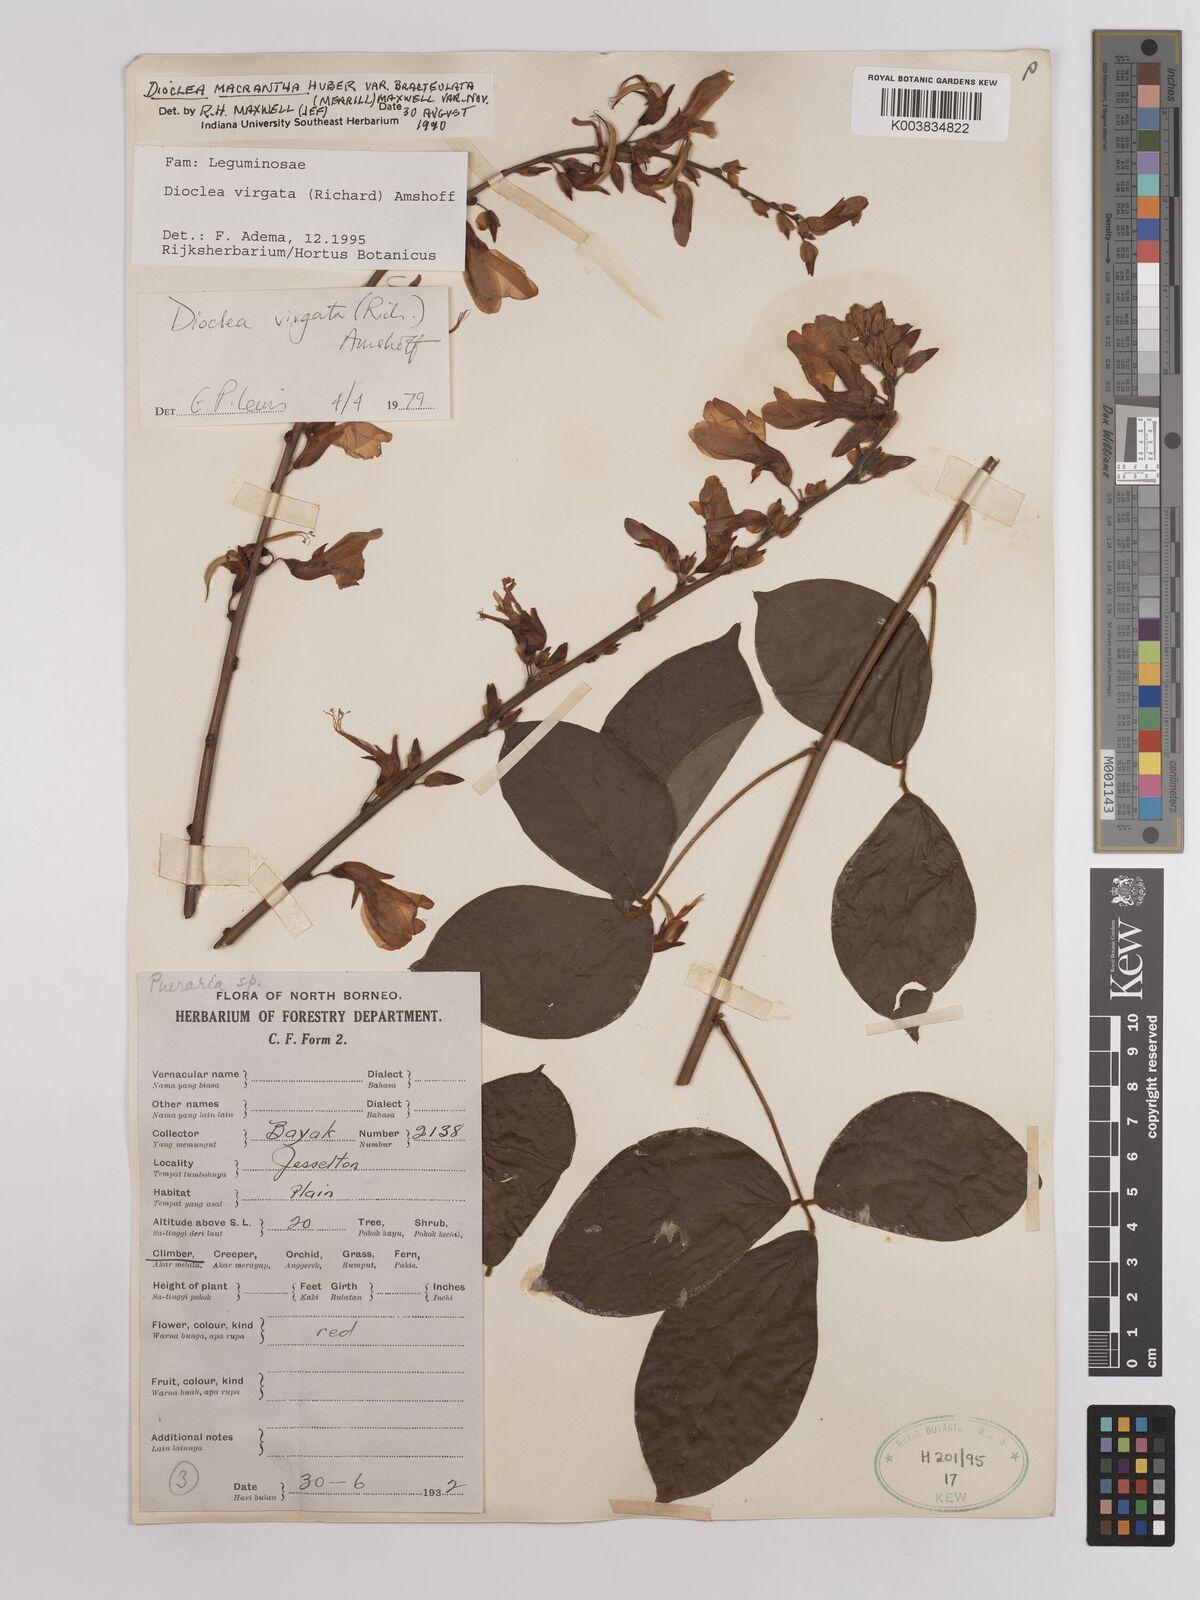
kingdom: Plantae
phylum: Tracheophyta
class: Magnoliopsida
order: Fabales
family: Fabaceae
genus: Dioclea
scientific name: Dioclea virgata
